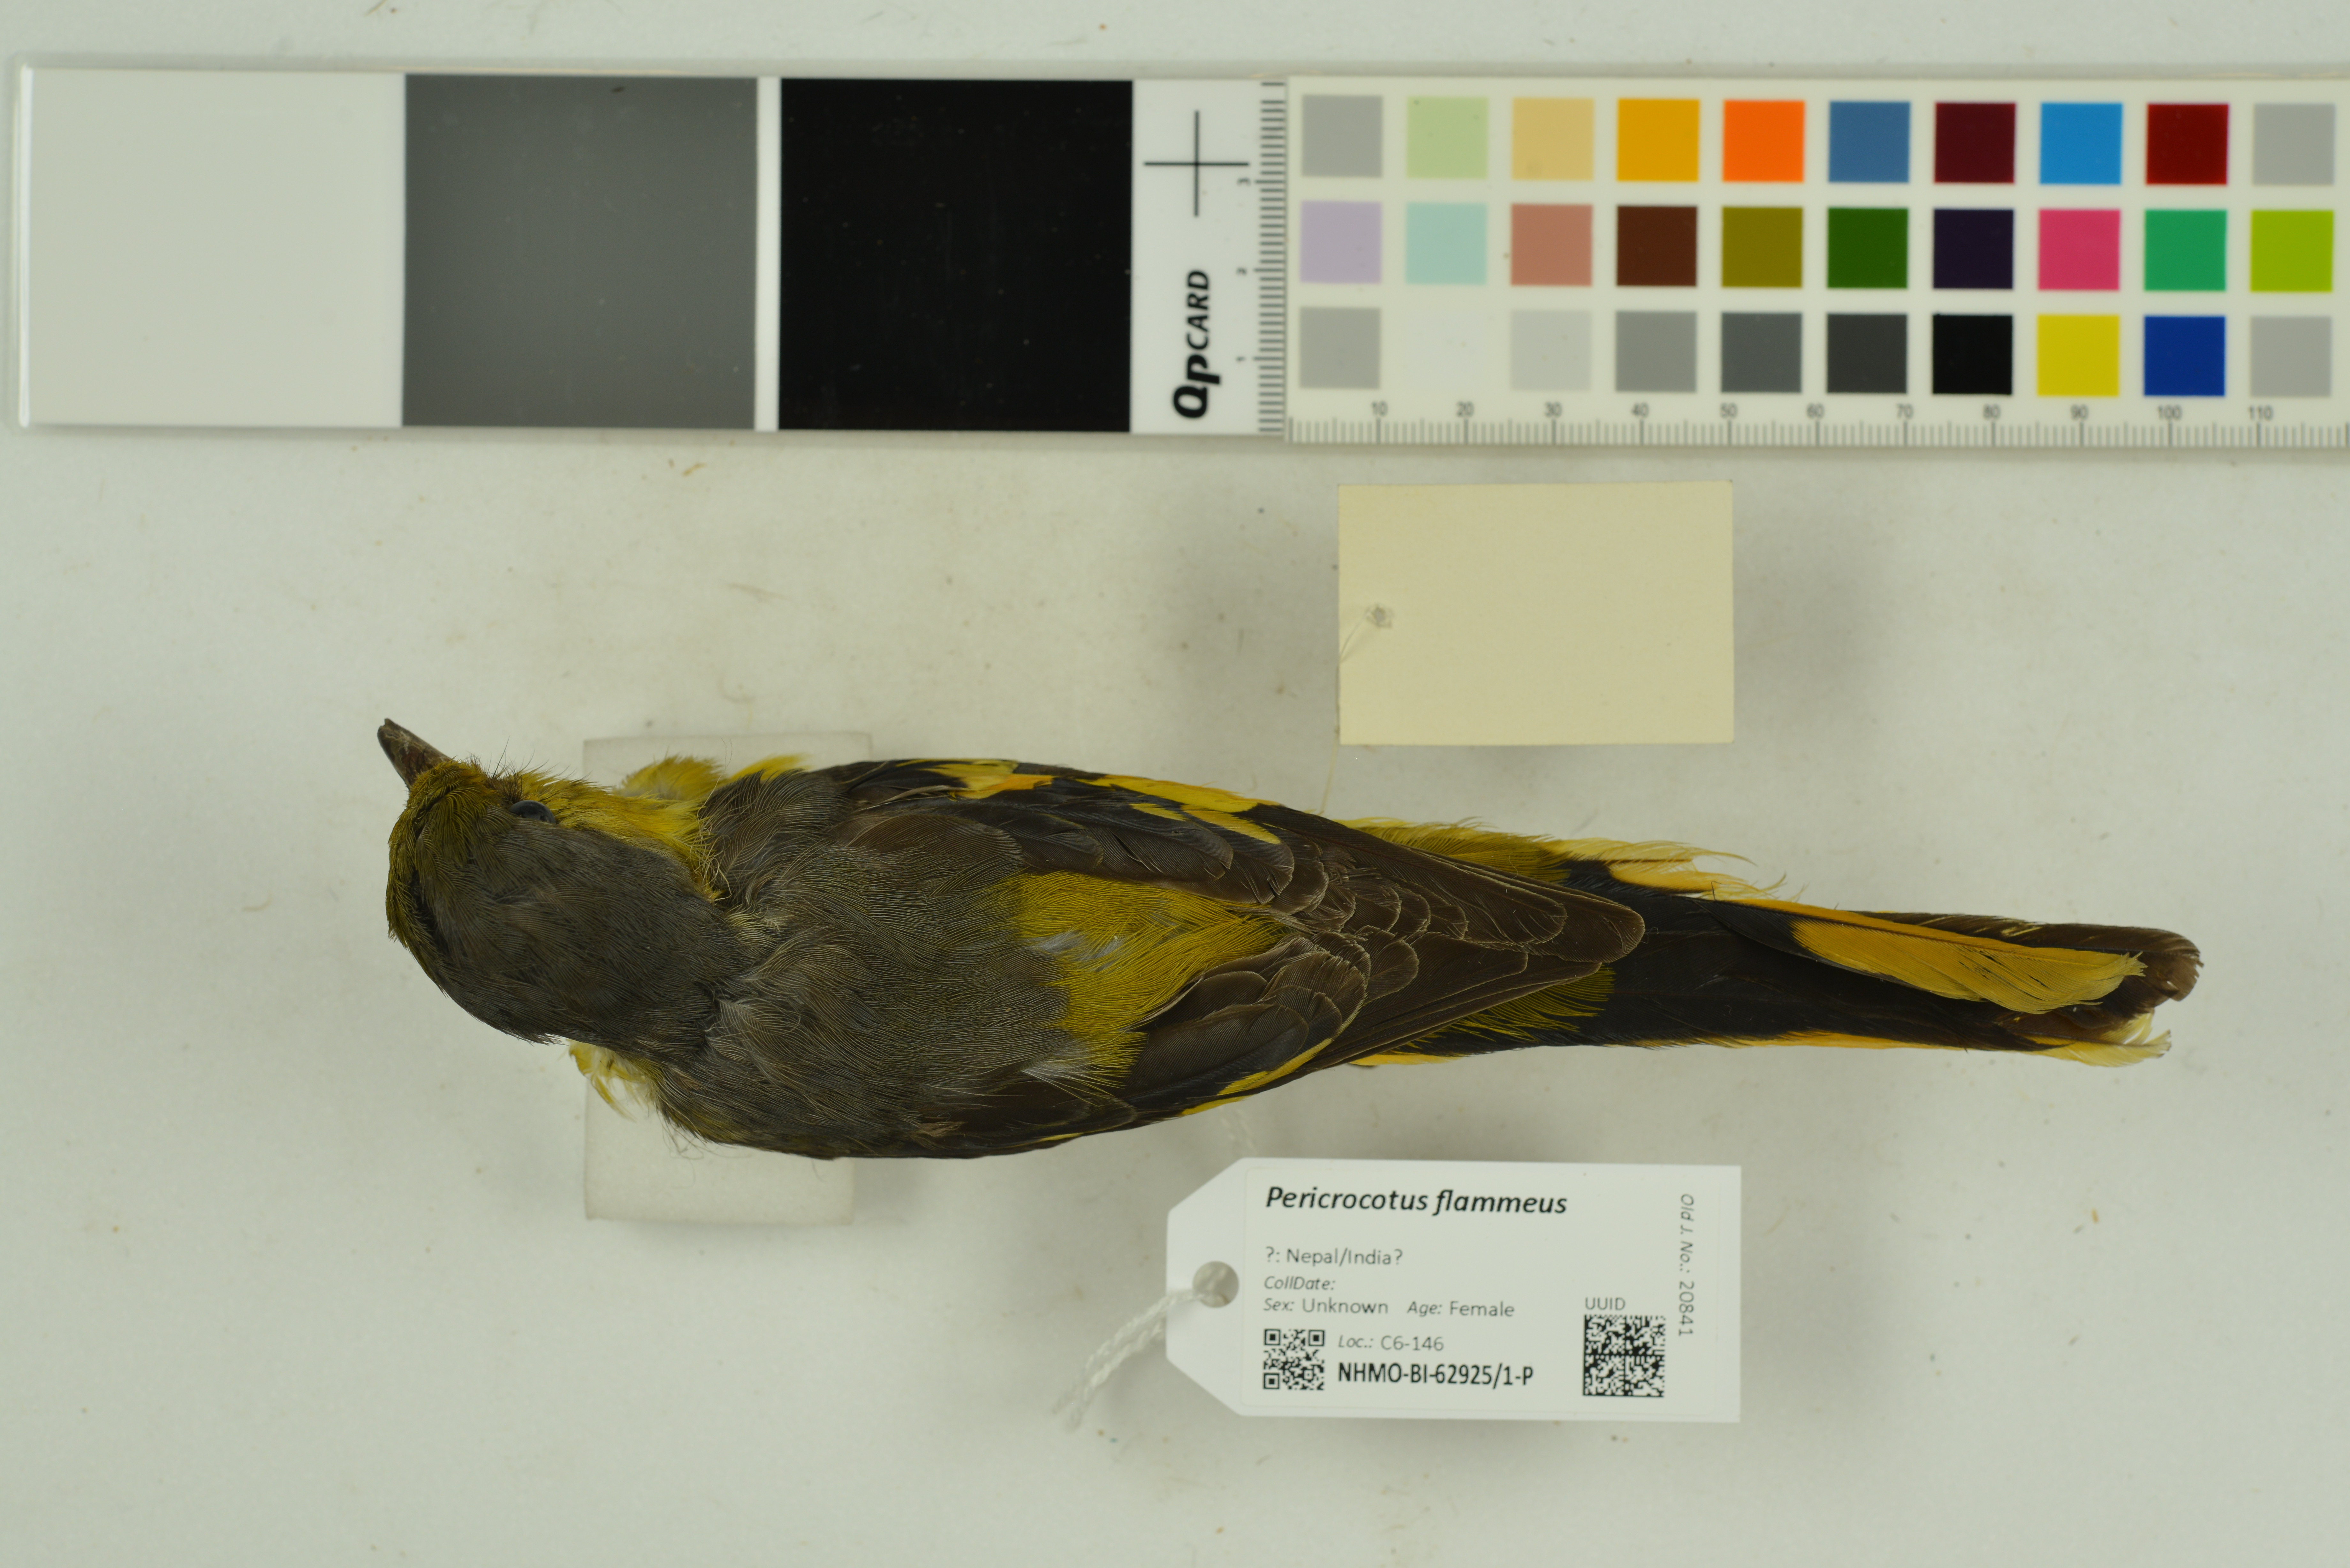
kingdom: Animalia
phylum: Chordata
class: Aves
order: Passeriformes
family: Campephagidae
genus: Pericrocotus
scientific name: Pericrocotus flammeus
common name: Orange minivet
